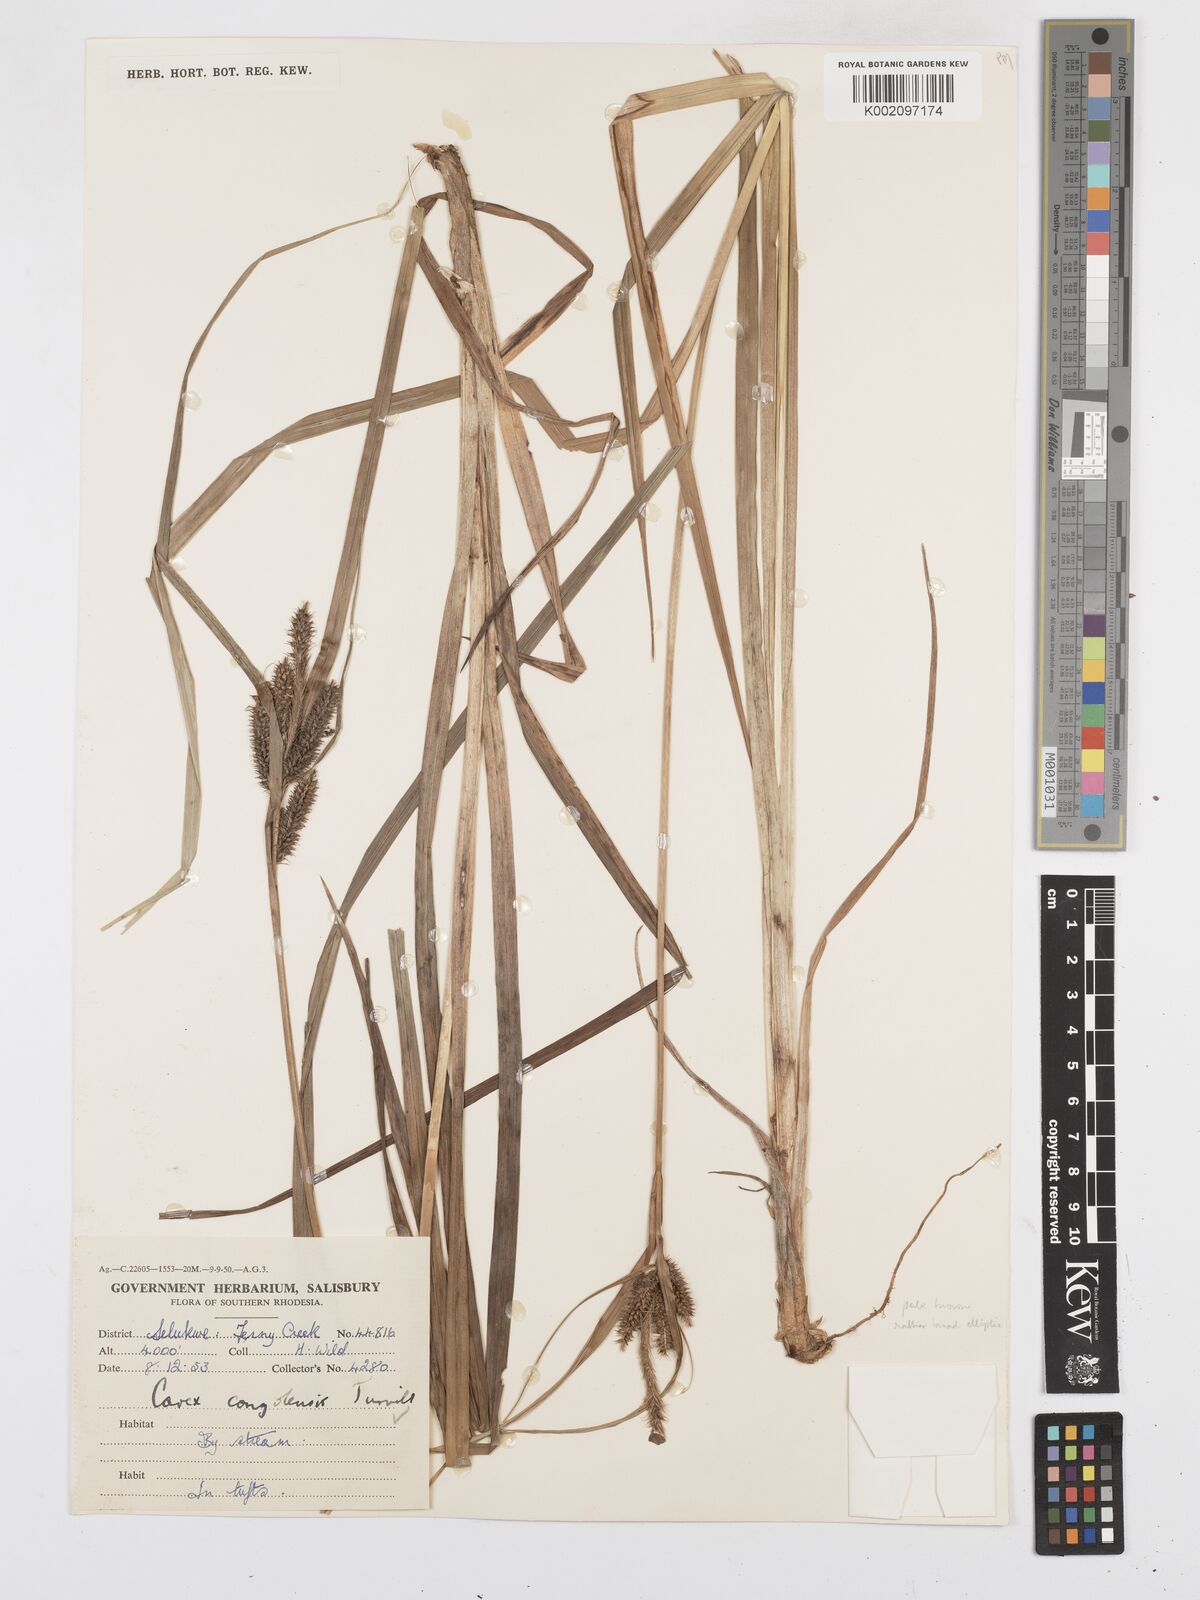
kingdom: Plantae
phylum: Tracheophyta
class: Liliopsida
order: Poales
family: Cyperaceae
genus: Carex
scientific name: Carex congolensis
